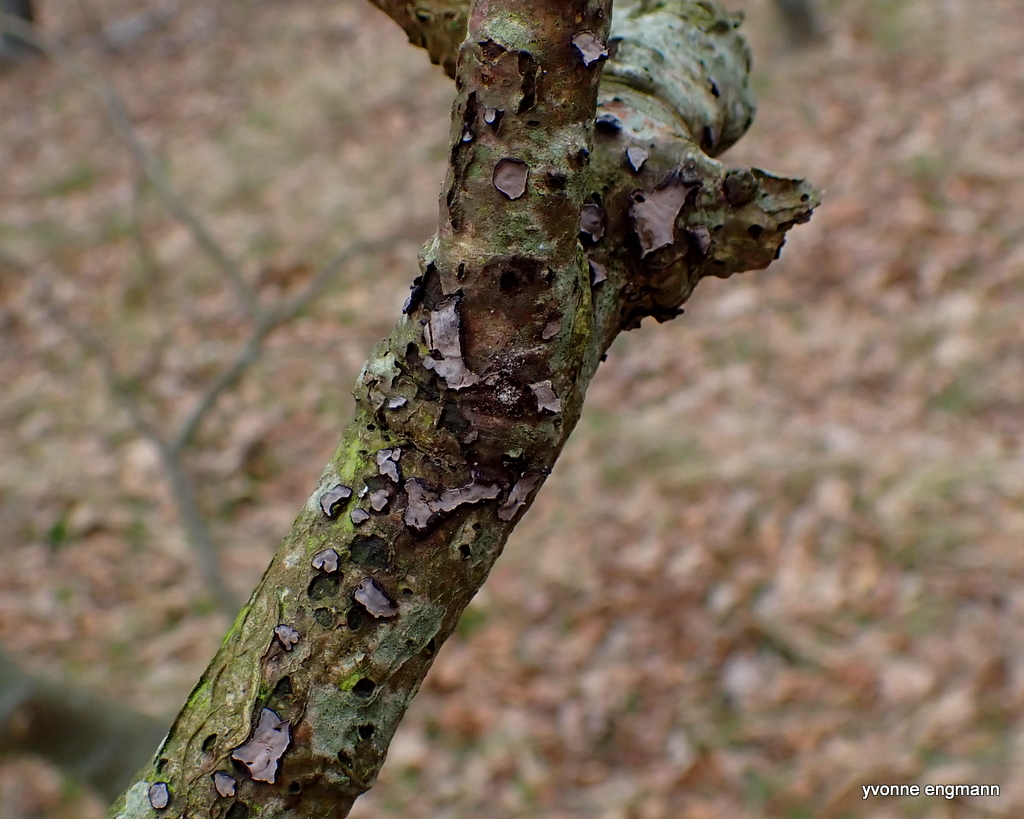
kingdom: Fungi
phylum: Basidiomycota
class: Agaricomycetes
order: Russulales
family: Peniophoraceae
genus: Peniophora
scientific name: Peniophora quercina
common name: ege-voksskind
